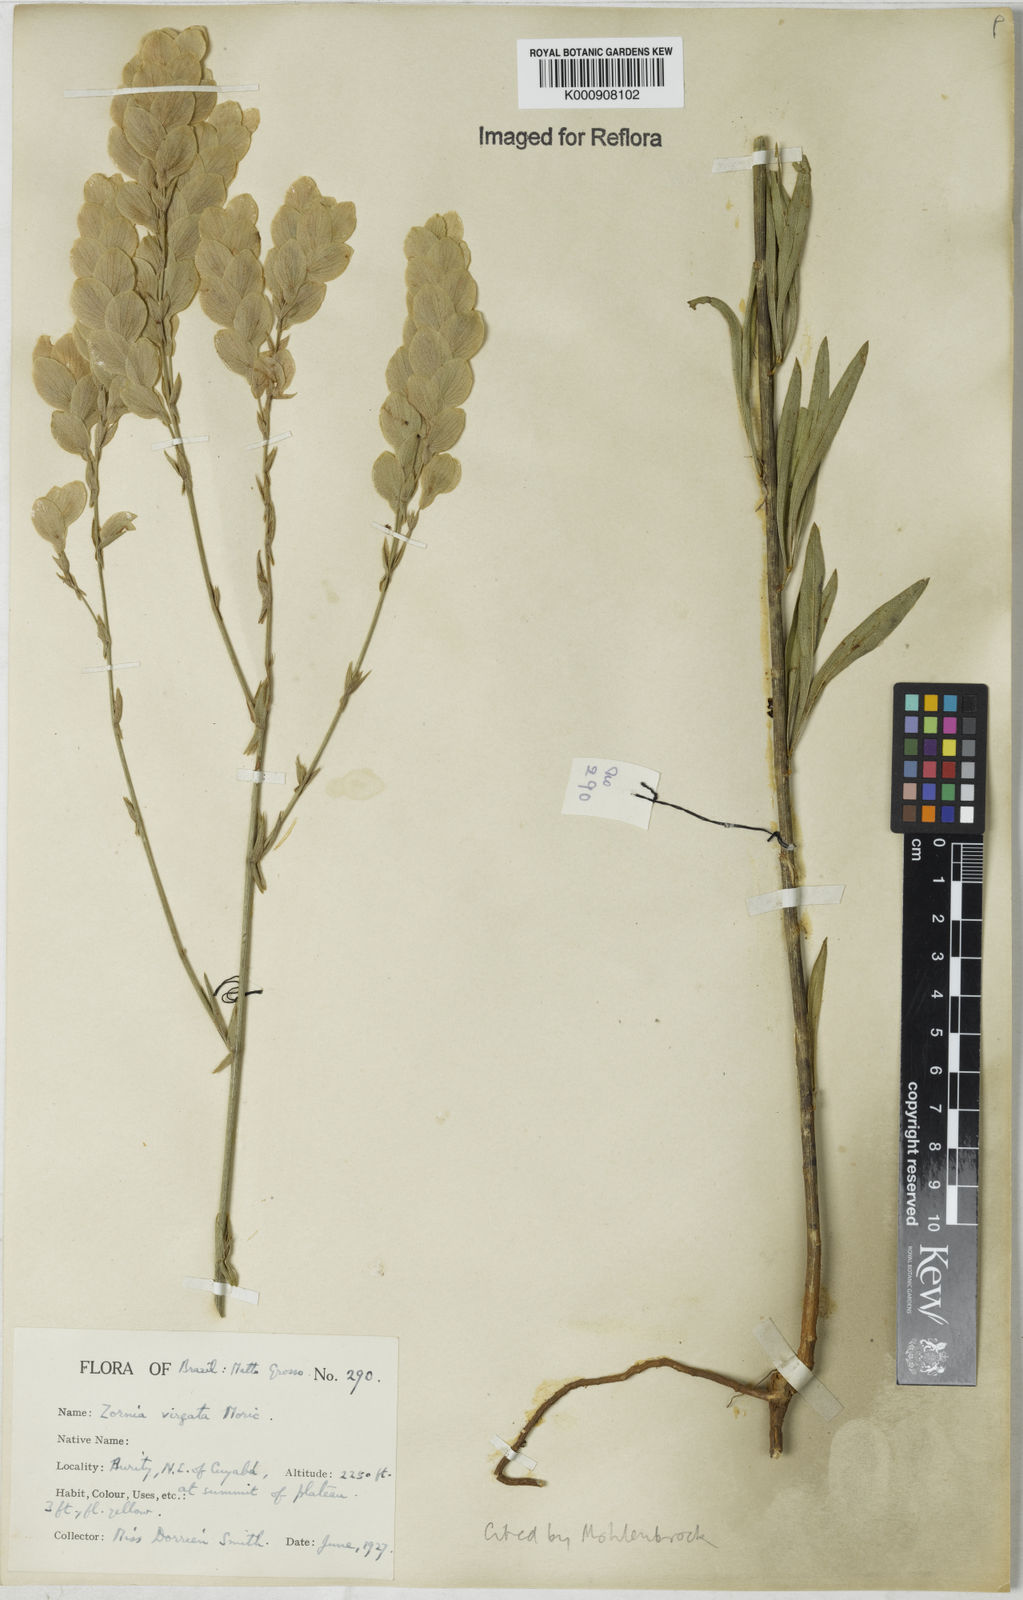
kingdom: Plantae
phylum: Tracheophyta
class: Magnoliopsida
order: Fabales
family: Fabaceae
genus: Zornia
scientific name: Zornia virgata
